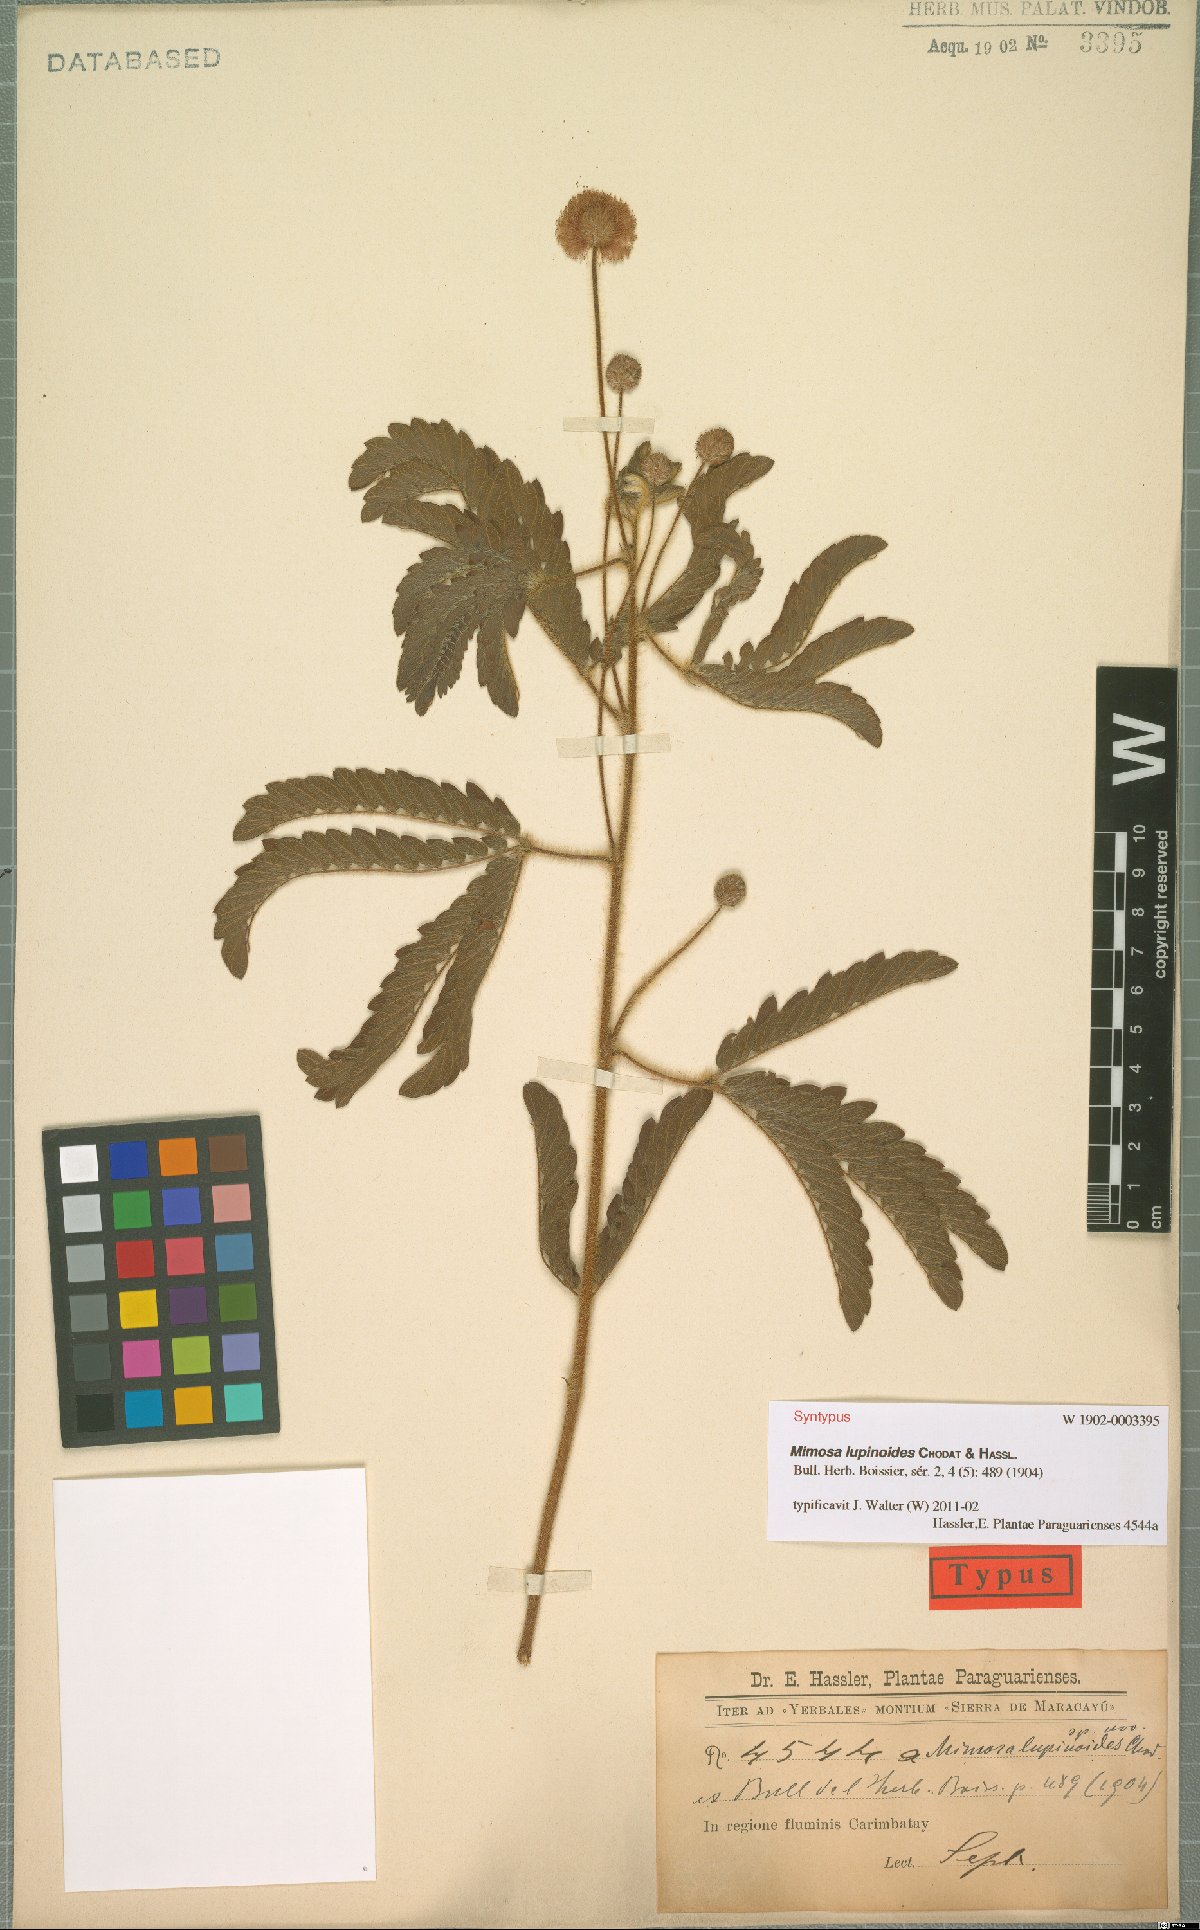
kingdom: Plantae
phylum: Tracheophyta
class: Magnoliopsida
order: Fabales
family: Fabaceae
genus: Mimosa
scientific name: Mimosa lupinoides
